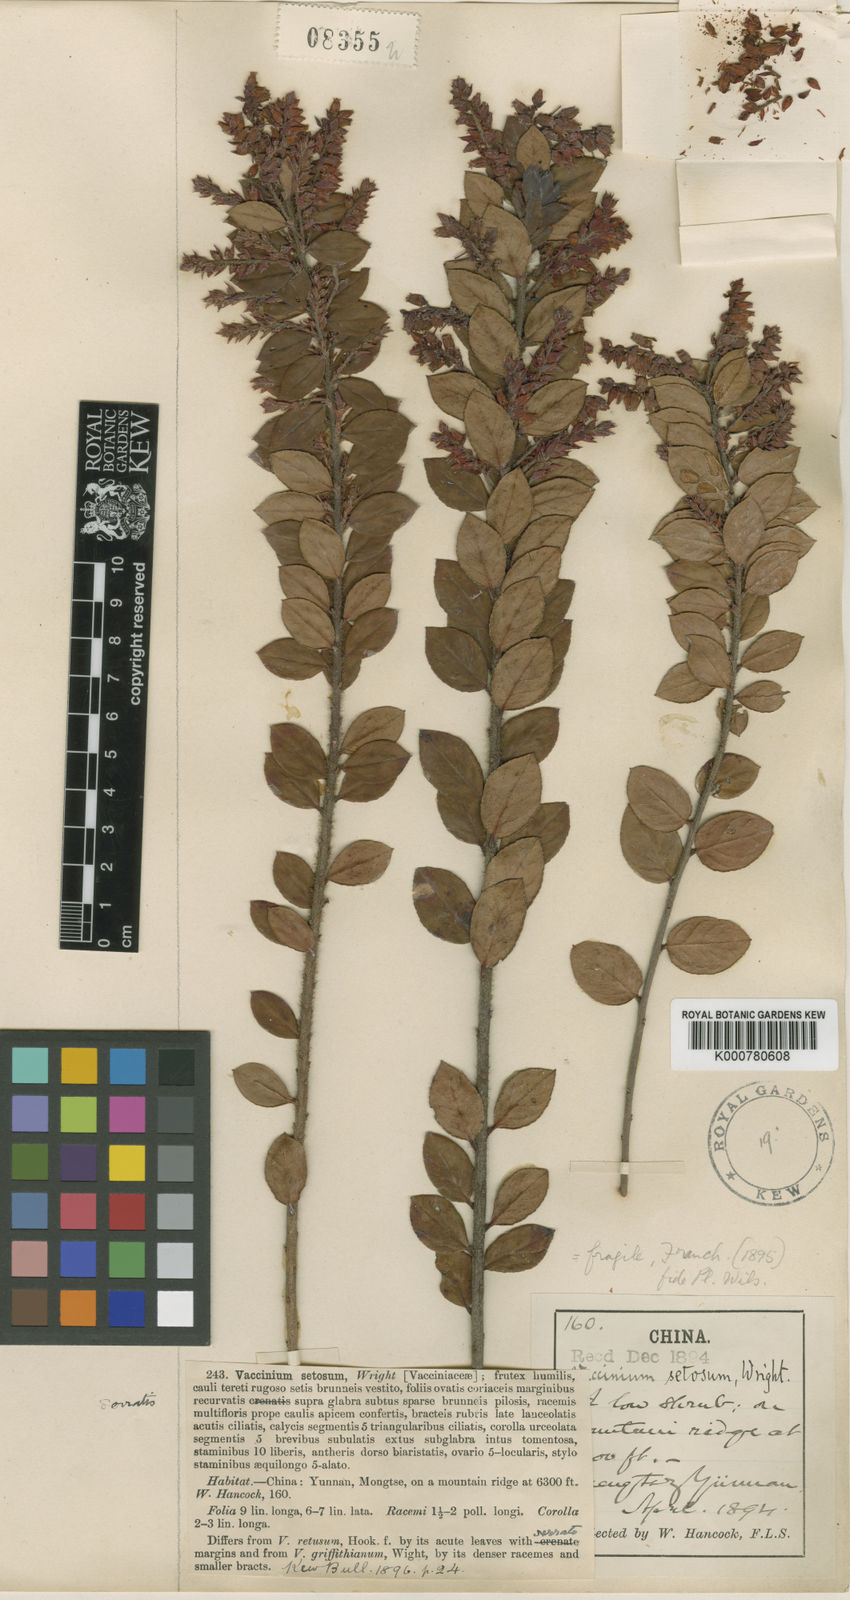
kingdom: Plantae
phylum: Tracheophyta
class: Magnoliopsida
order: Ericales
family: Ericaceae
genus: Vaccinium
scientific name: Vaccinium fragile
